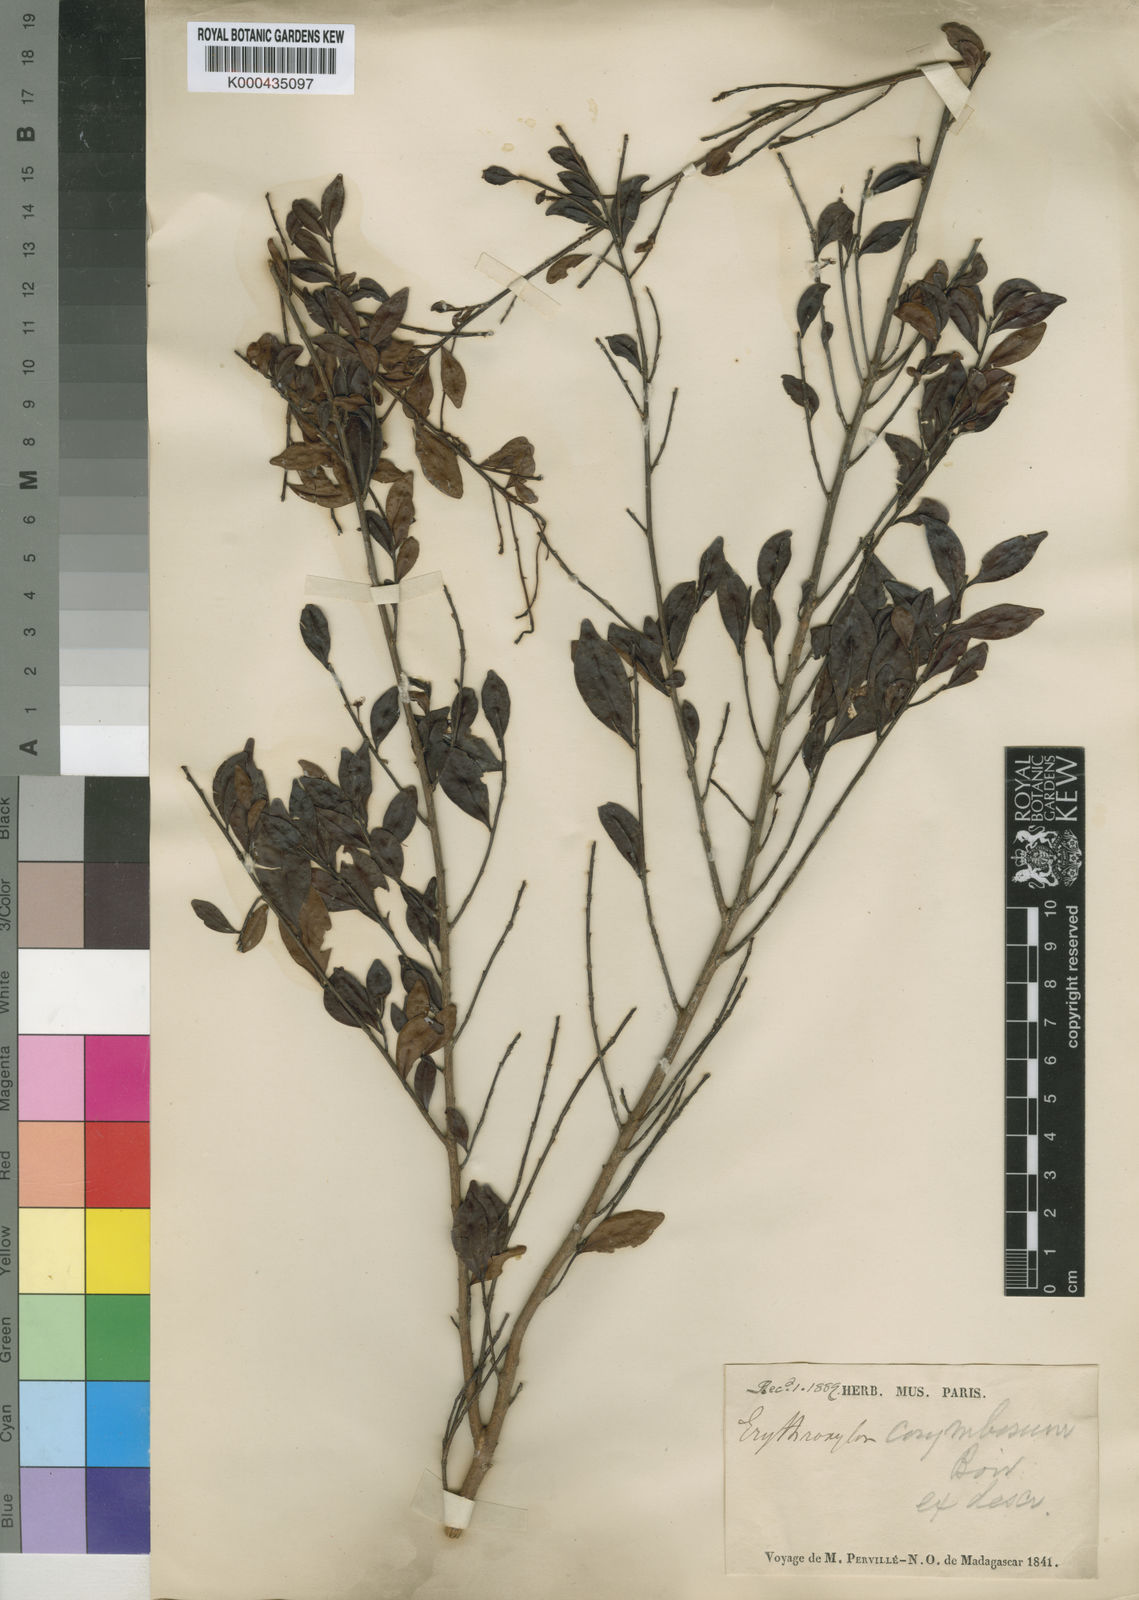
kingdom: Plantae
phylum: Tracheophyta
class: Magnoliopsida
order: Malpighiales
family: Erythroxylaceae
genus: Erythroxylum
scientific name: Erythroxylum corymbosum
